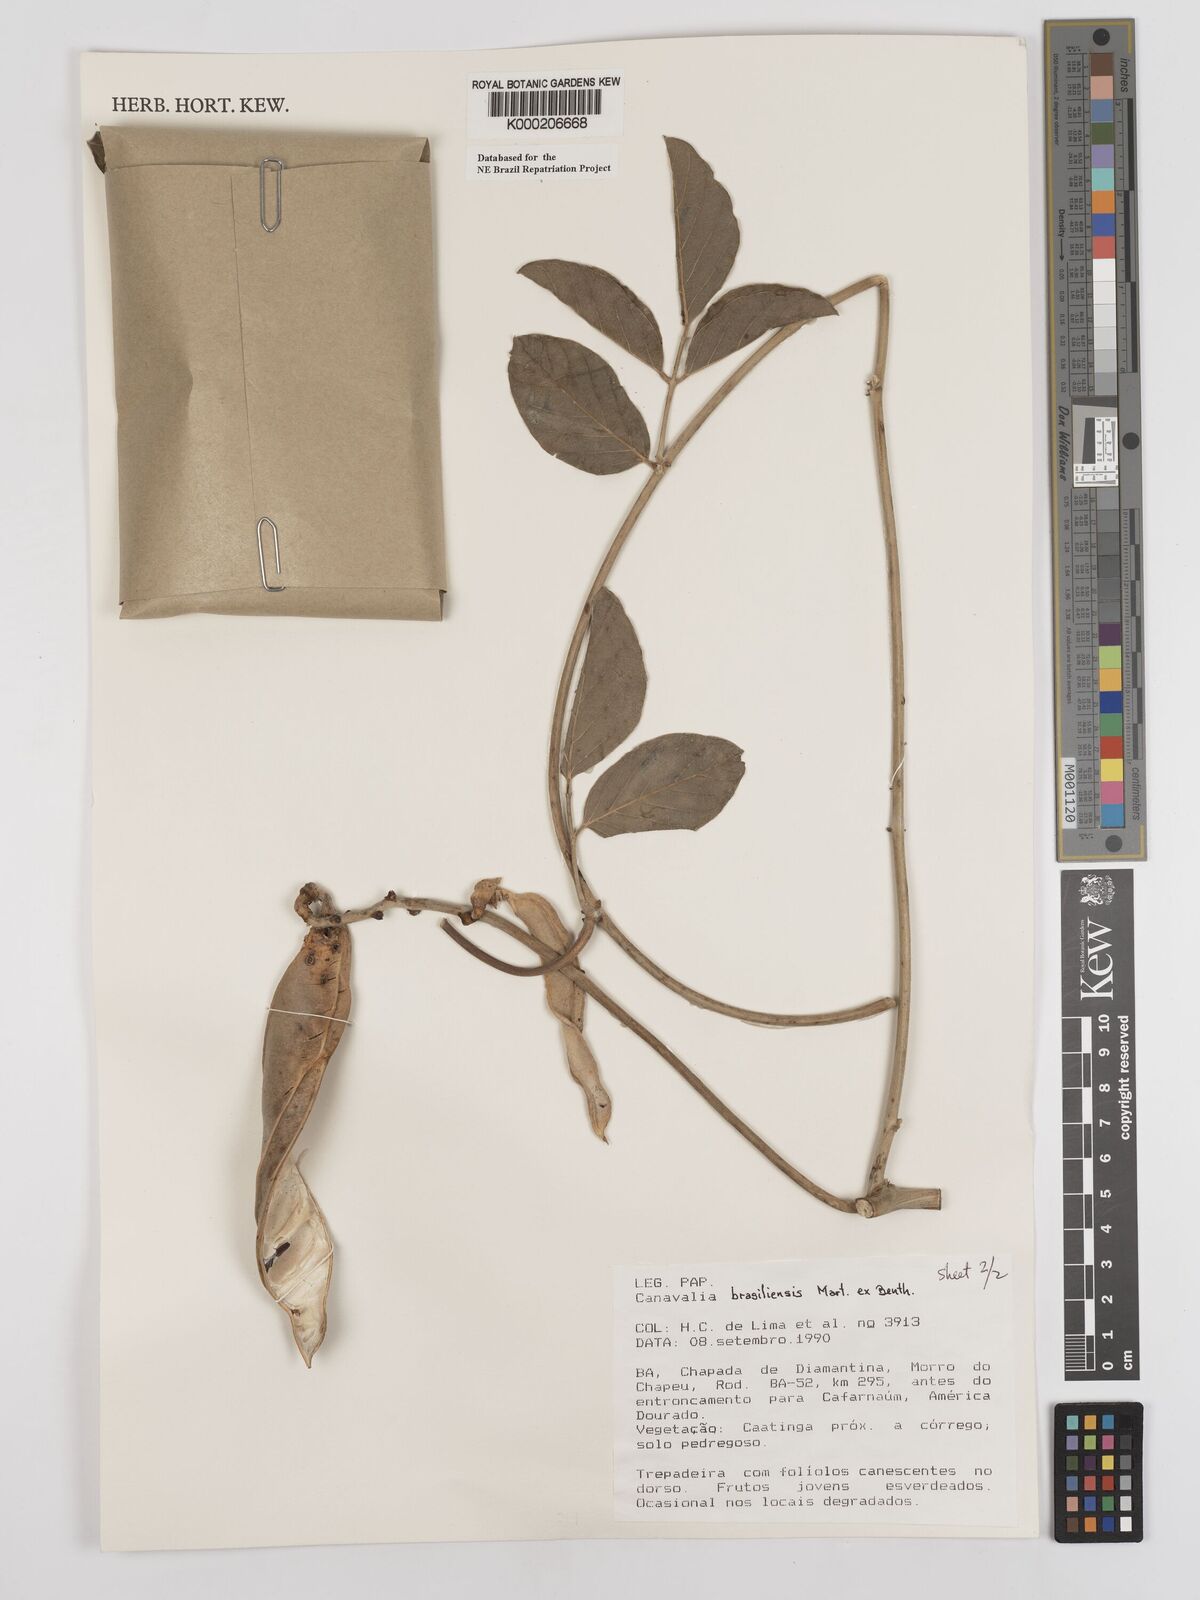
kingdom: Plantae
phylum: Tracheophyta
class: Magnoliopsida
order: Fabales
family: Fabaceae
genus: Canavalia
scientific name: Canavalia brasiliensis
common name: Barbicou-bean
